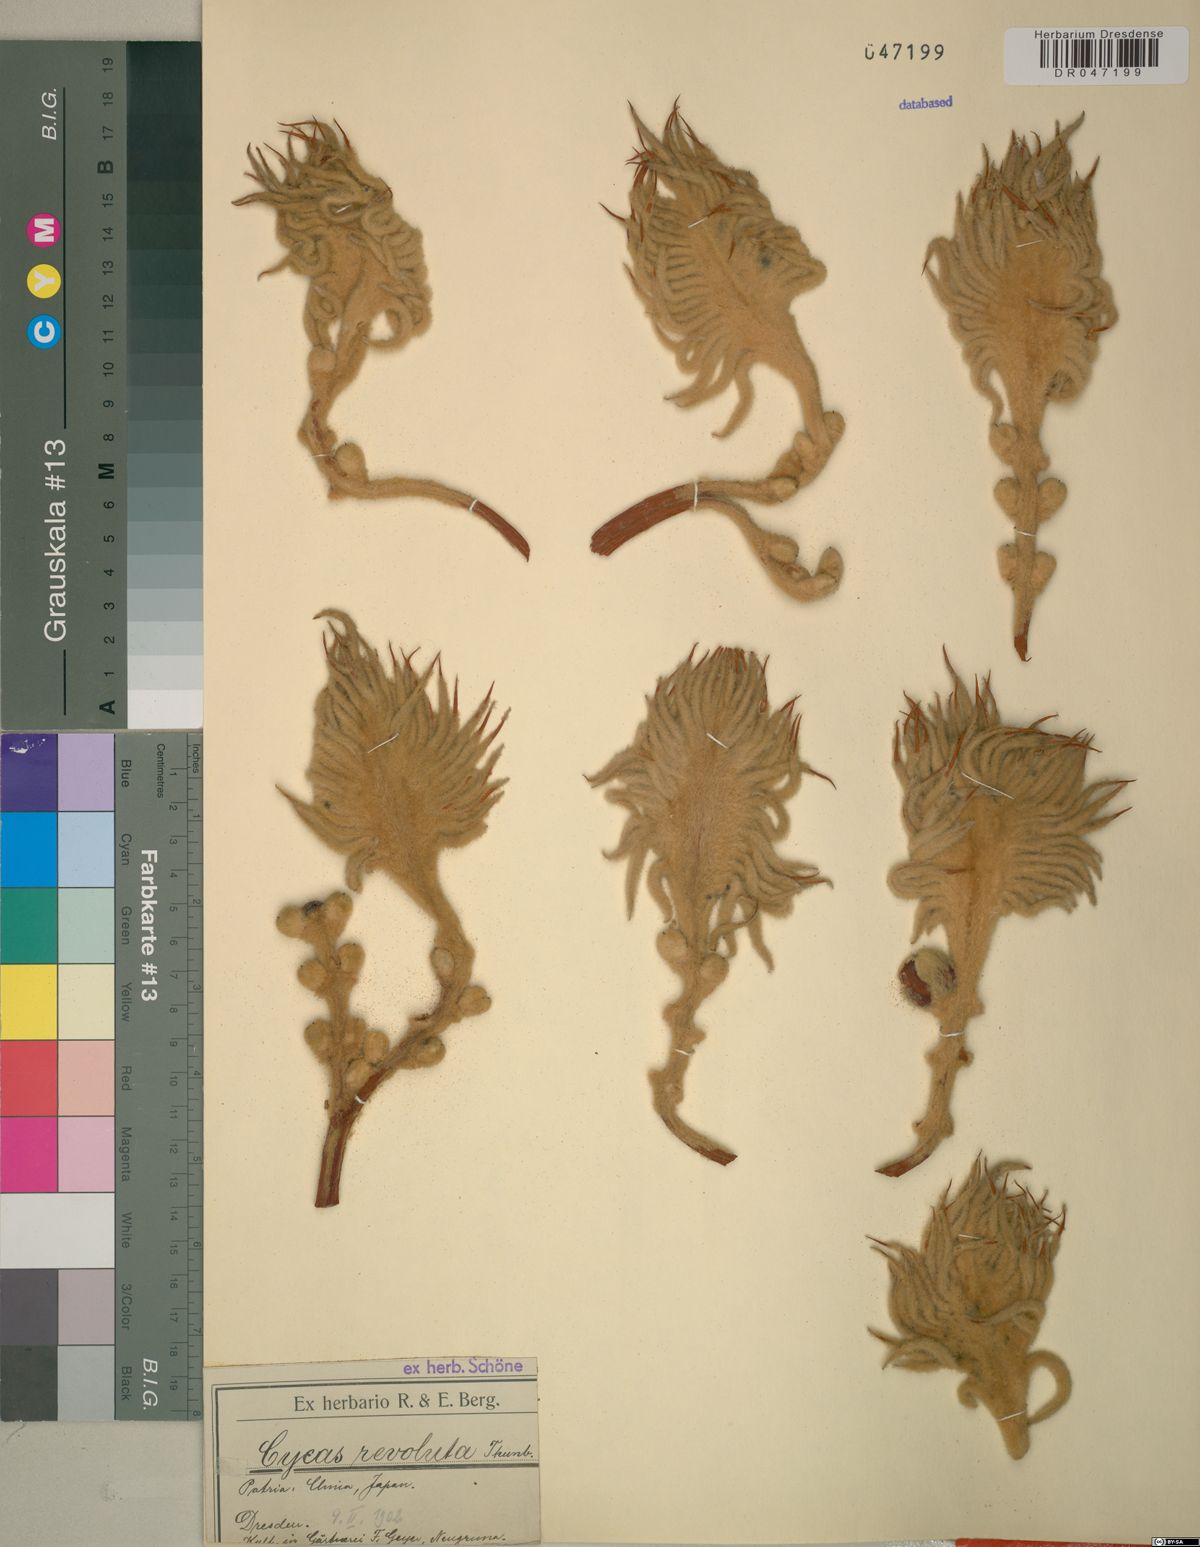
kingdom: Plantae
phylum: Tracheophyta
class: Cycadopsida
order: Cycadales
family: Cycadaceae
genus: Cycas
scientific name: Cycas revoluta
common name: Sago palm
